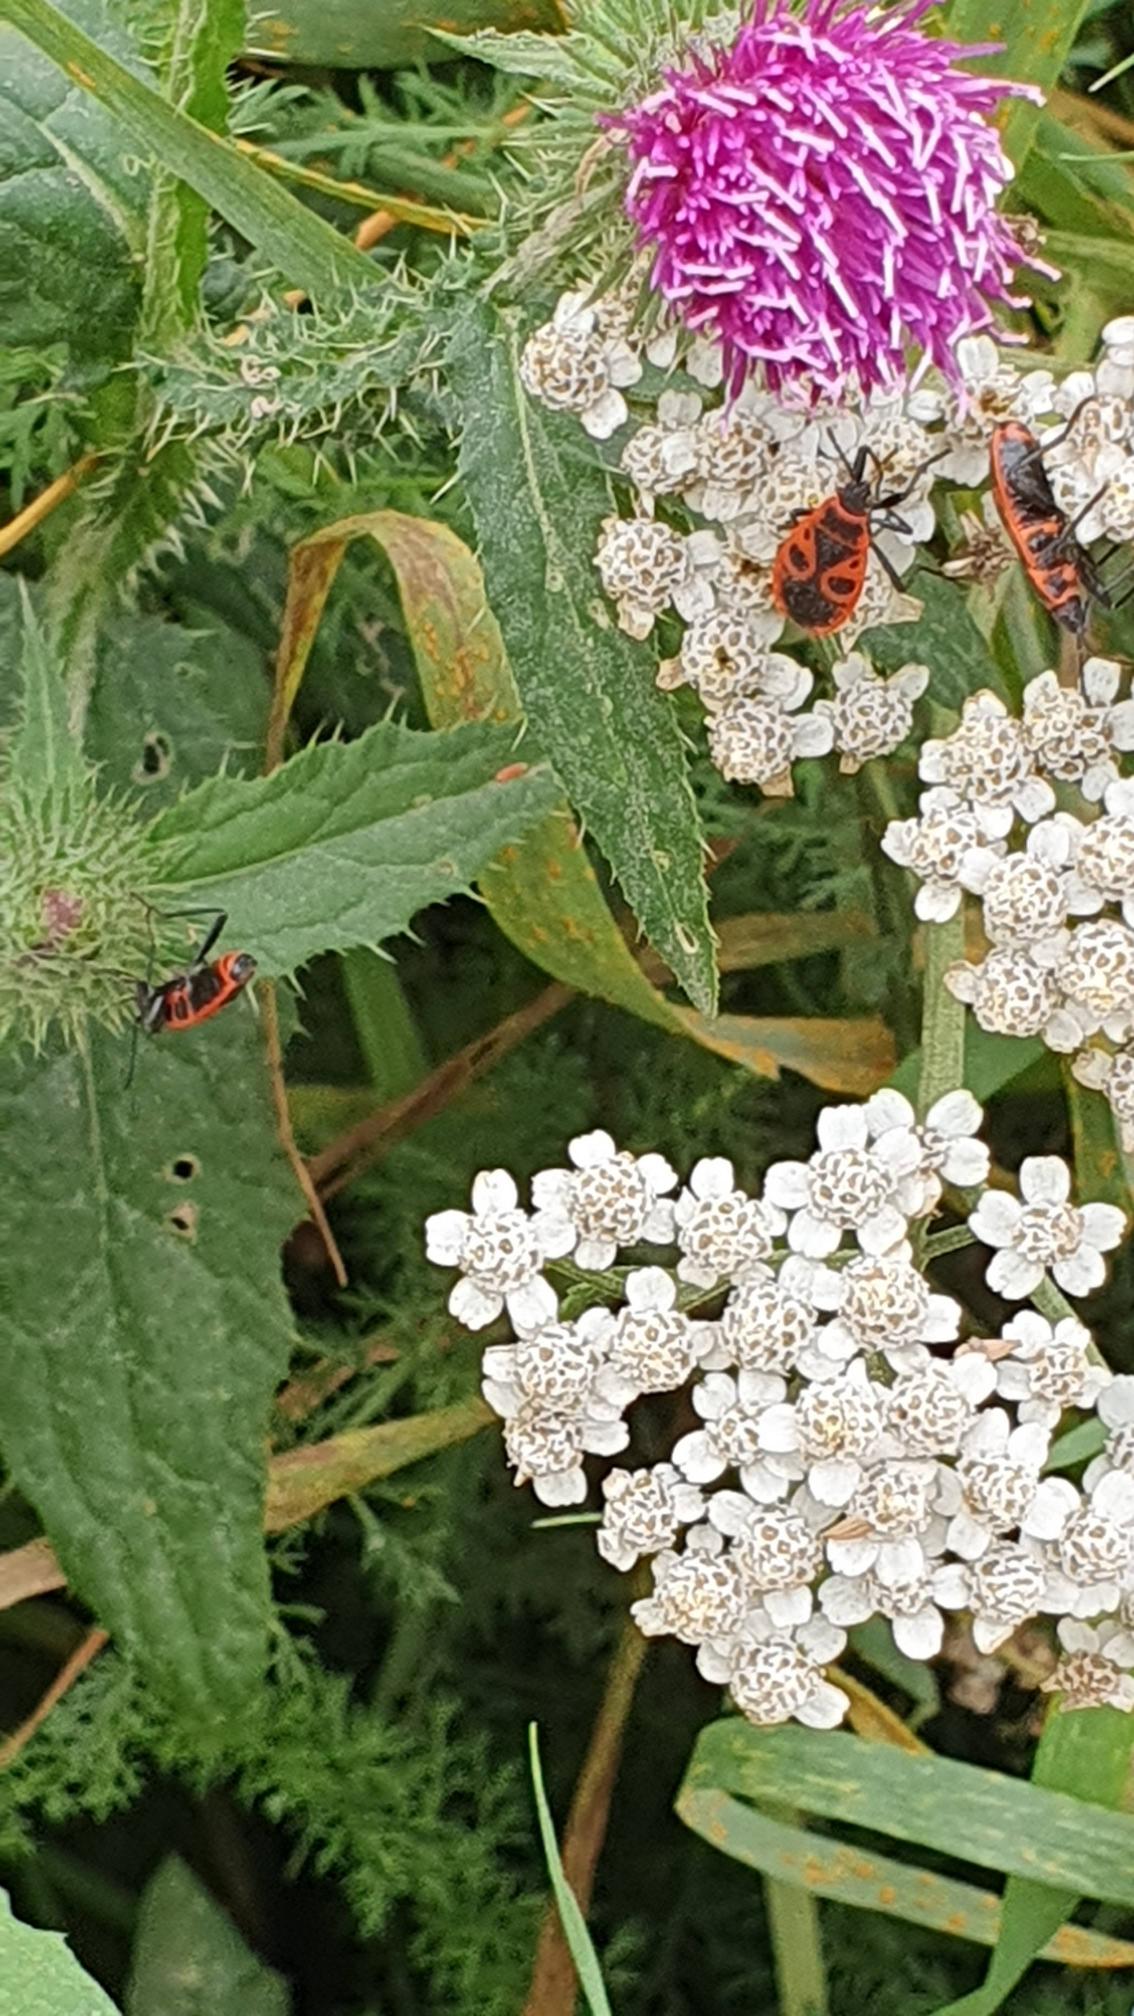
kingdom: Animalia
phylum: Arthropoda
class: Insecta
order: Hemiptera
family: Pyrrhocoridae
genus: Pyrrhocoris
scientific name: Pyrrhocoris apterus
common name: Ildtæge
